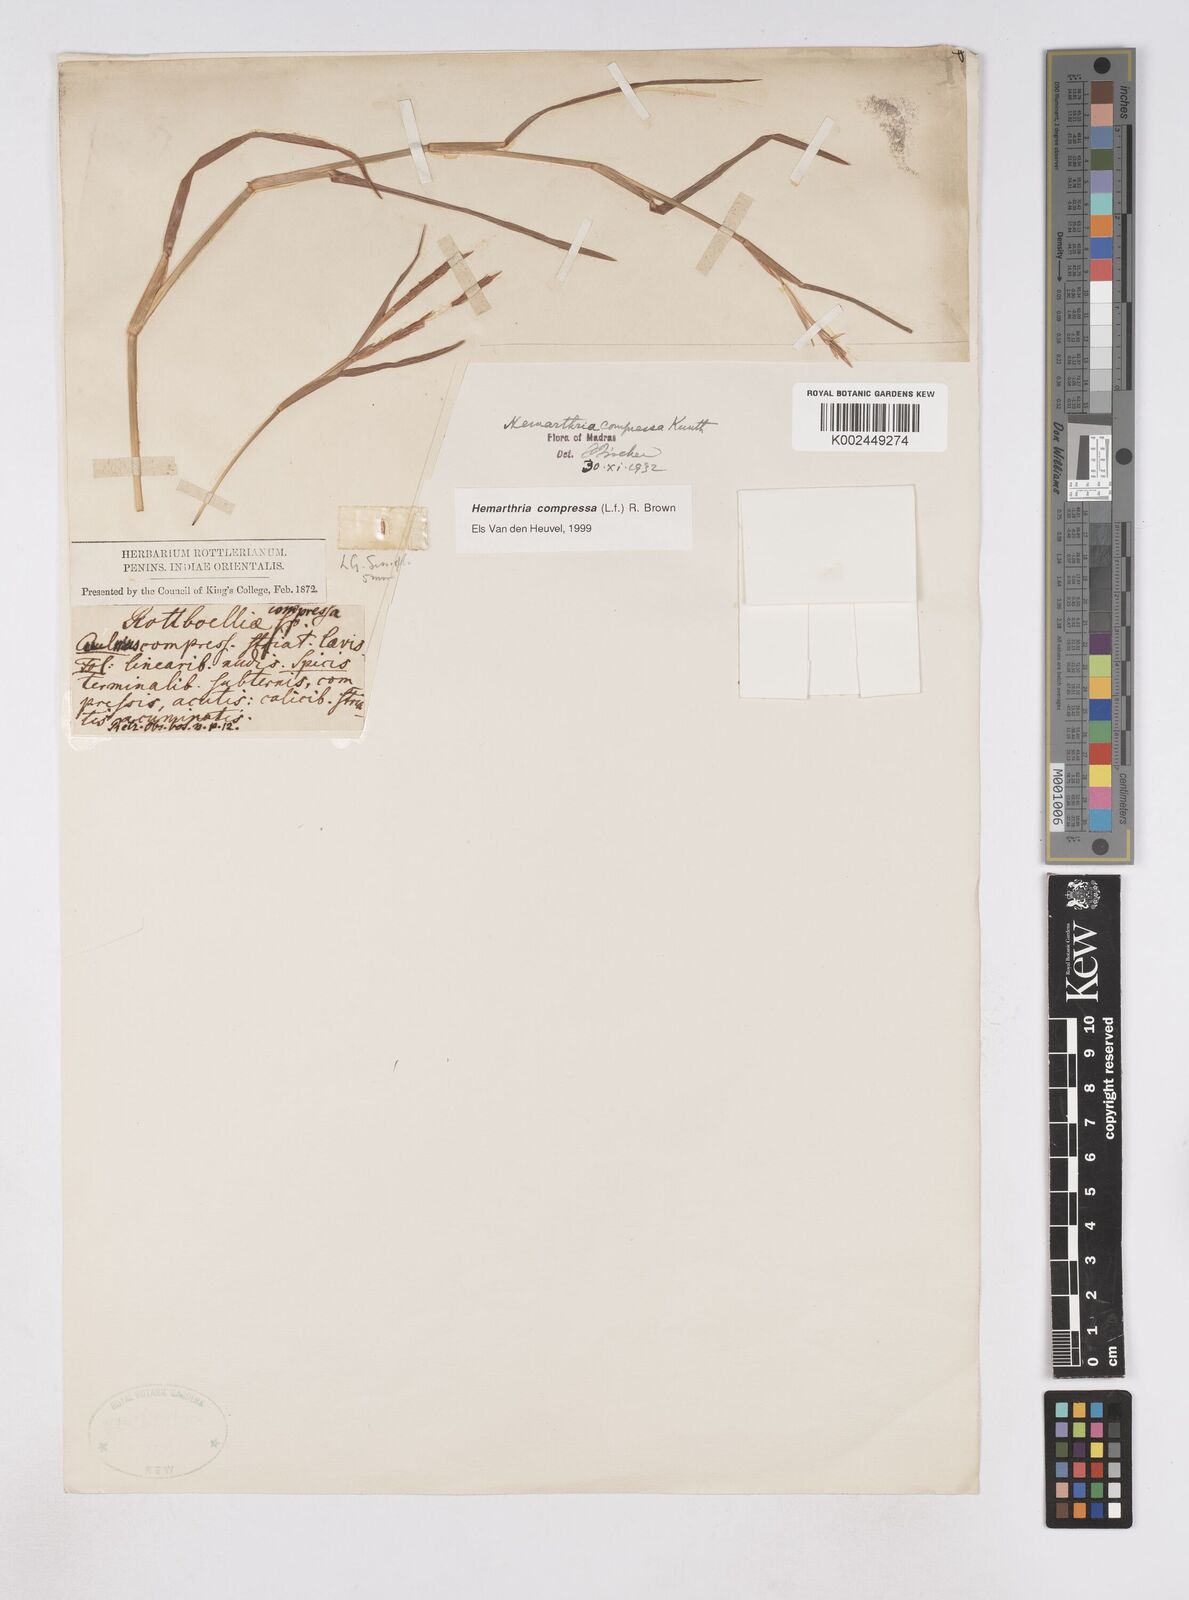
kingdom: Plantae
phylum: Tracheophyta
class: Liliopsida
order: Poales
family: Poaceae
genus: Hemarthria
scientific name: Hemarthria compressa
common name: Whip grass
